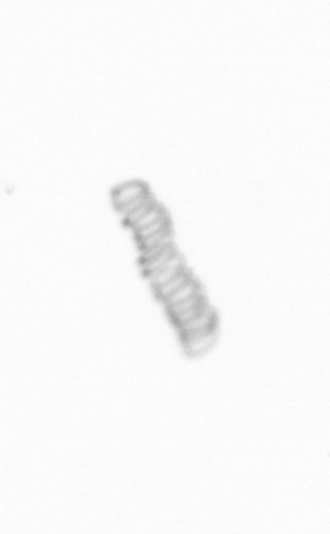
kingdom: Chromista
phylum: Ochrophyta
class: Bacillariophyceae
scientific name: Bacillariophyceae
